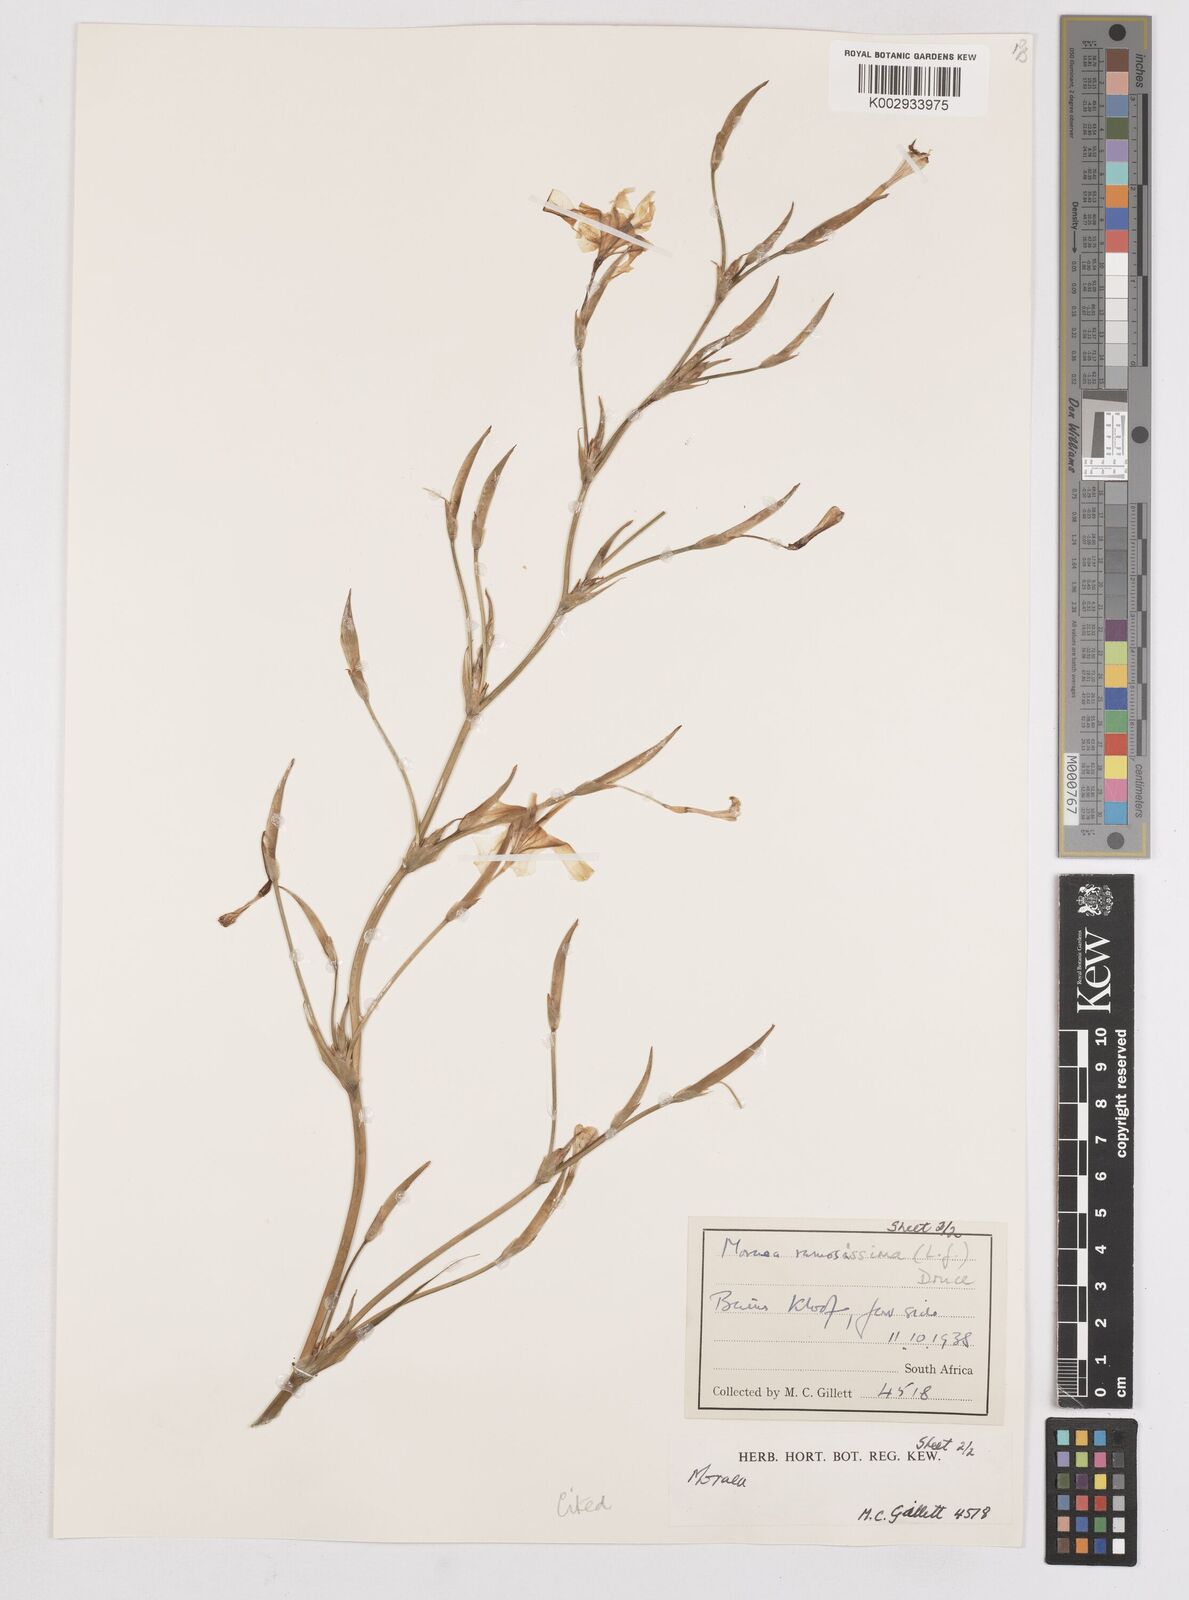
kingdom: Plantae
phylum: Tracheophyta
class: Liliopsida
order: Asparagales
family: Iridaceae
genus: Moraea
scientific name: Moraea ramosissima
